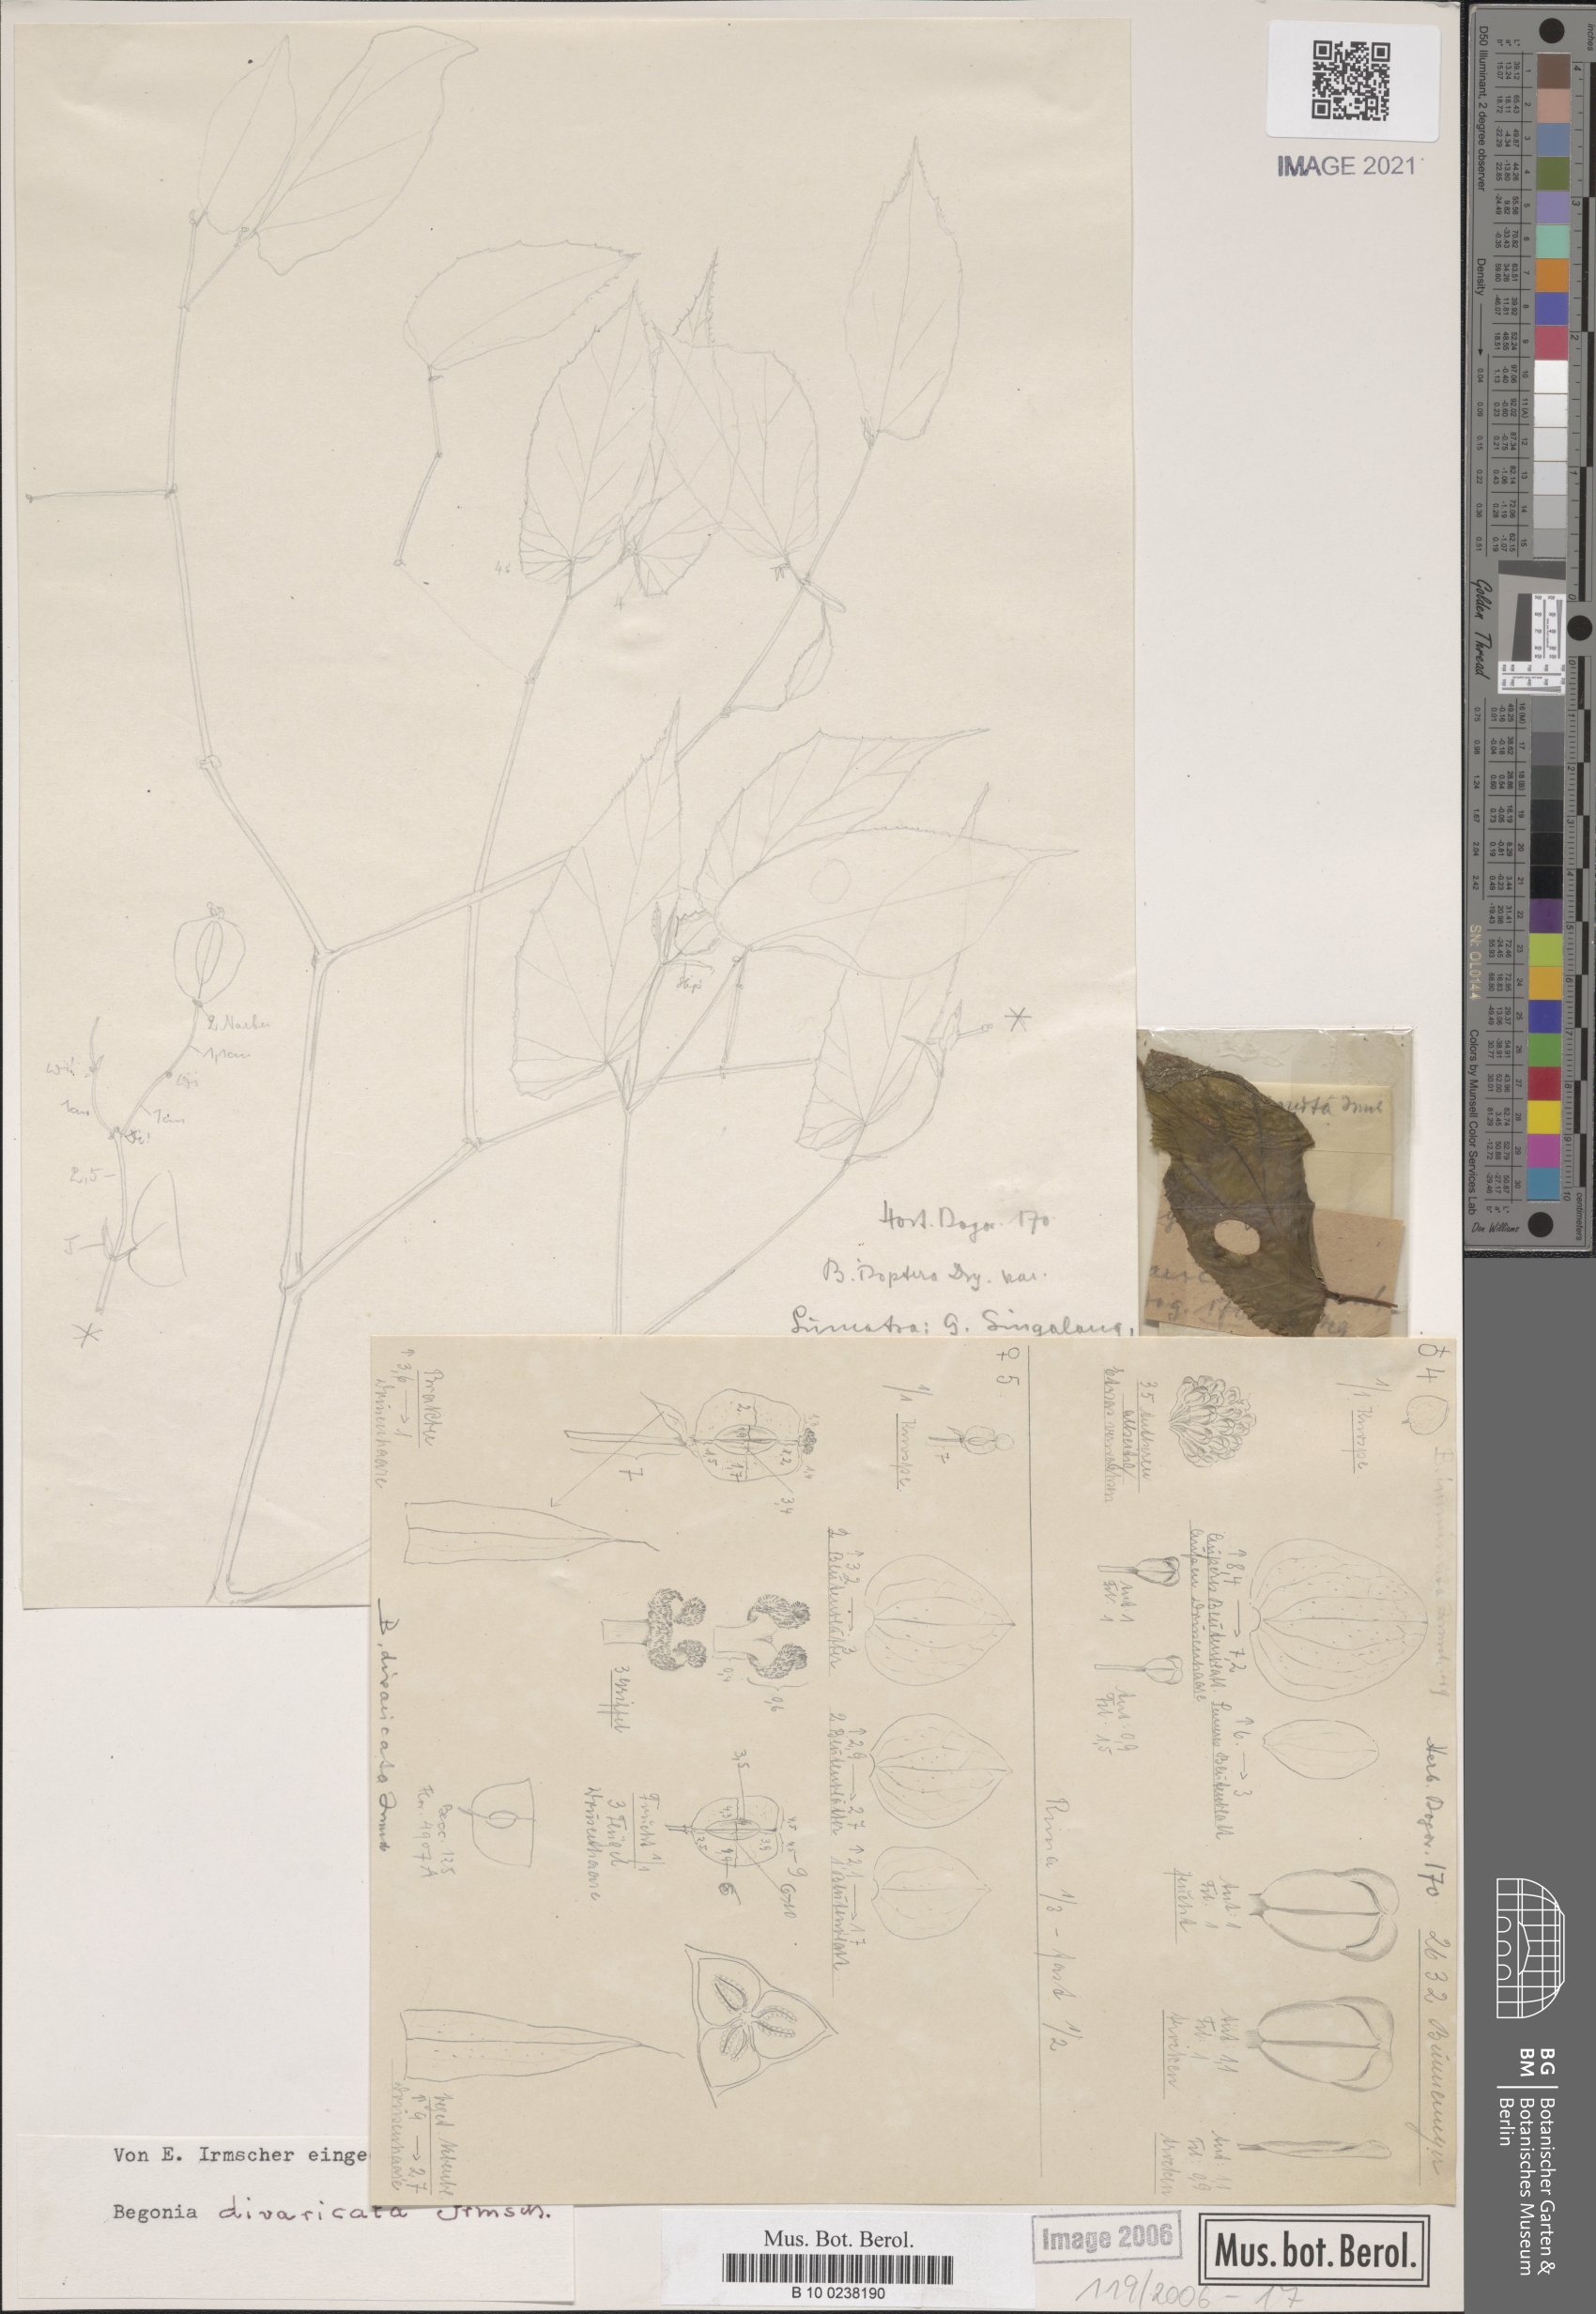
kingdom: Plantae
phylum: Tracheophyta
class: Magnoliopsida
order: Cucurbitales
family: Begoniaceae
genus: Begonia
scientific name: Begonia divaricata
